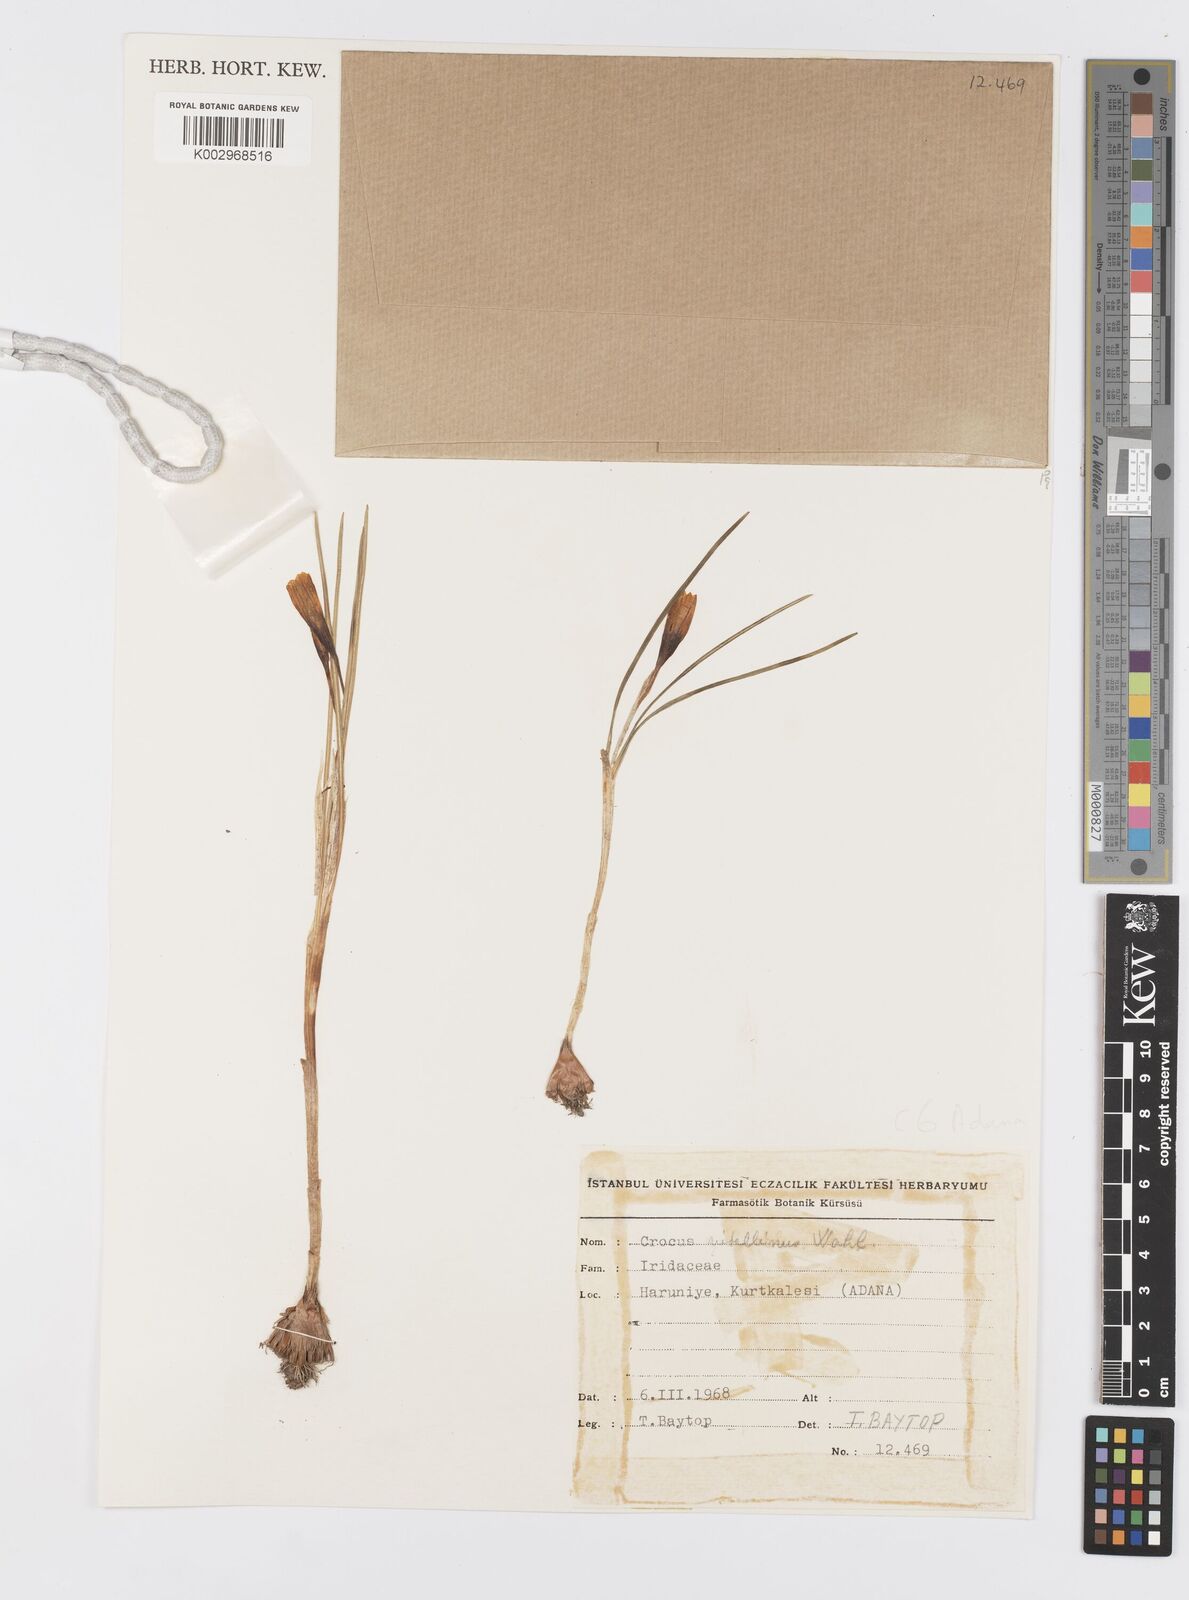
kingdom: Plantae
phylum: Tracheophyta
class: Liliopsida
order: Asparagales
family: Iridaceae
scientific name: Iridaceae
